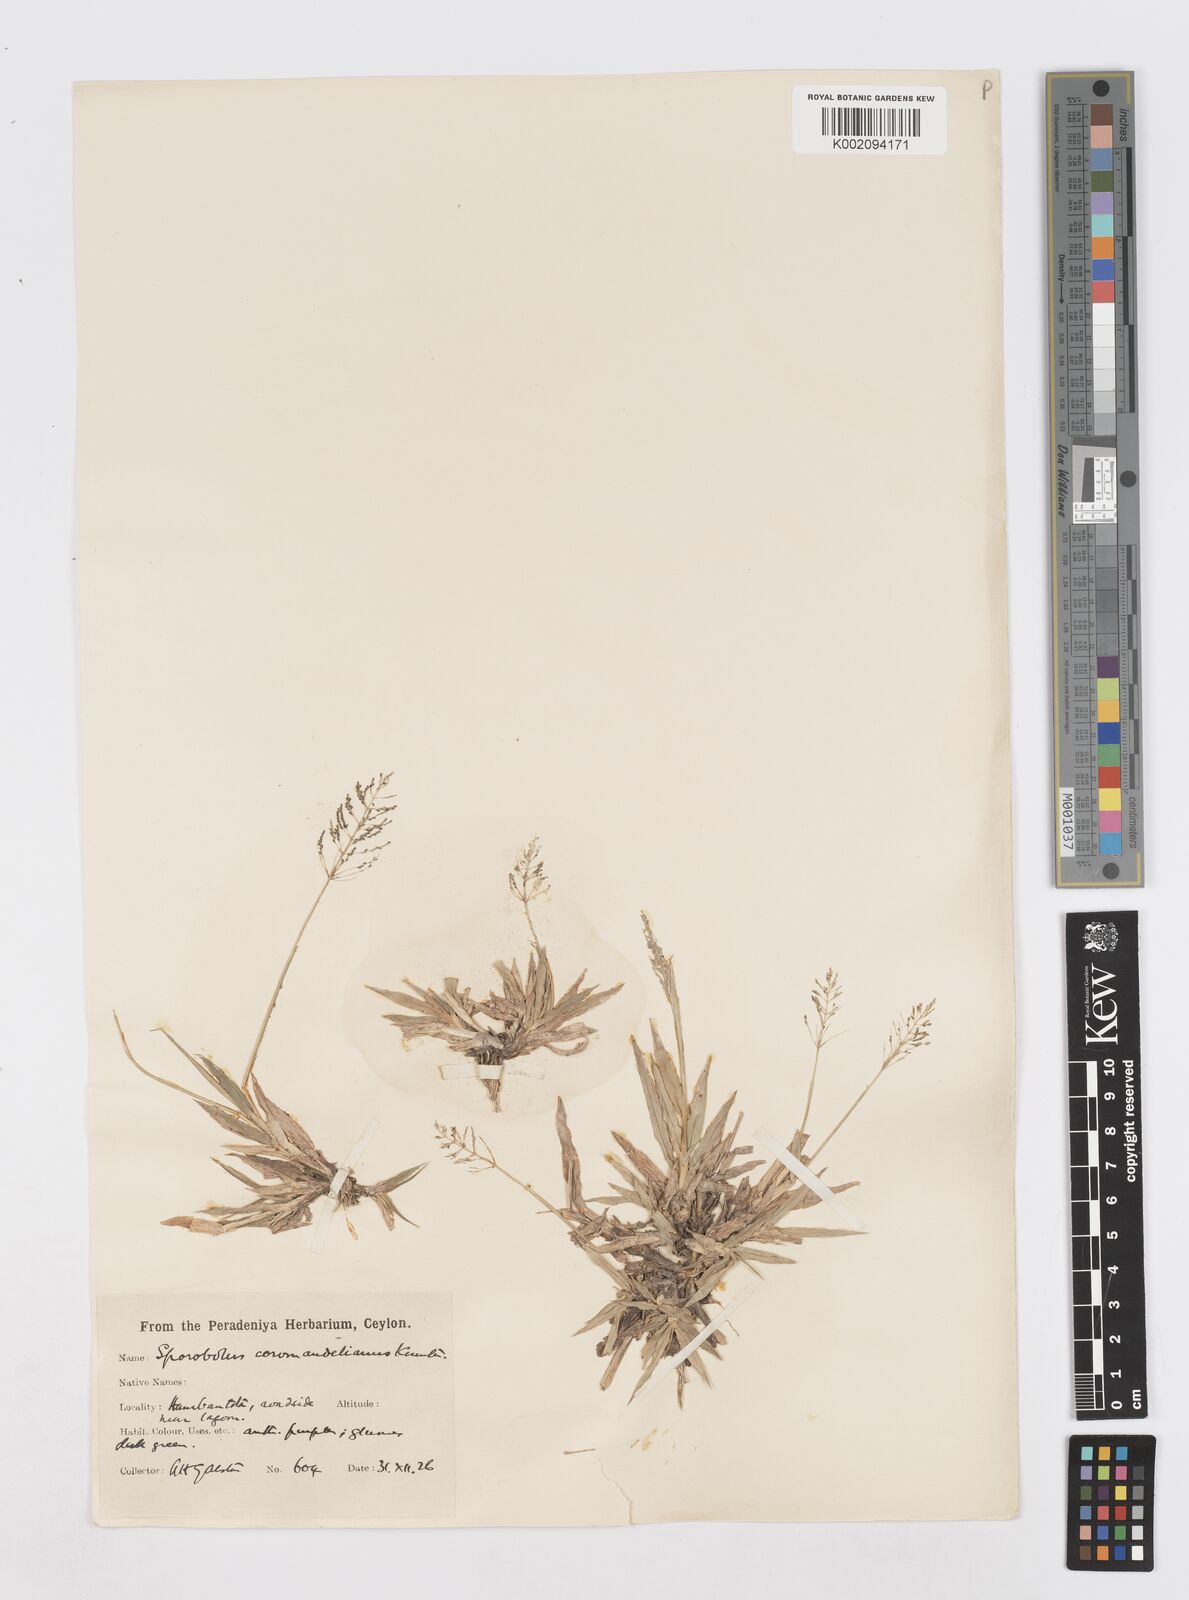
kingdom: Plantae
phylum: Tracheophyta
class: Liliopsida
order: Poales
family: Poaceae
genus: Sporobolus
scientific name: Sporobolus coromandelianus
